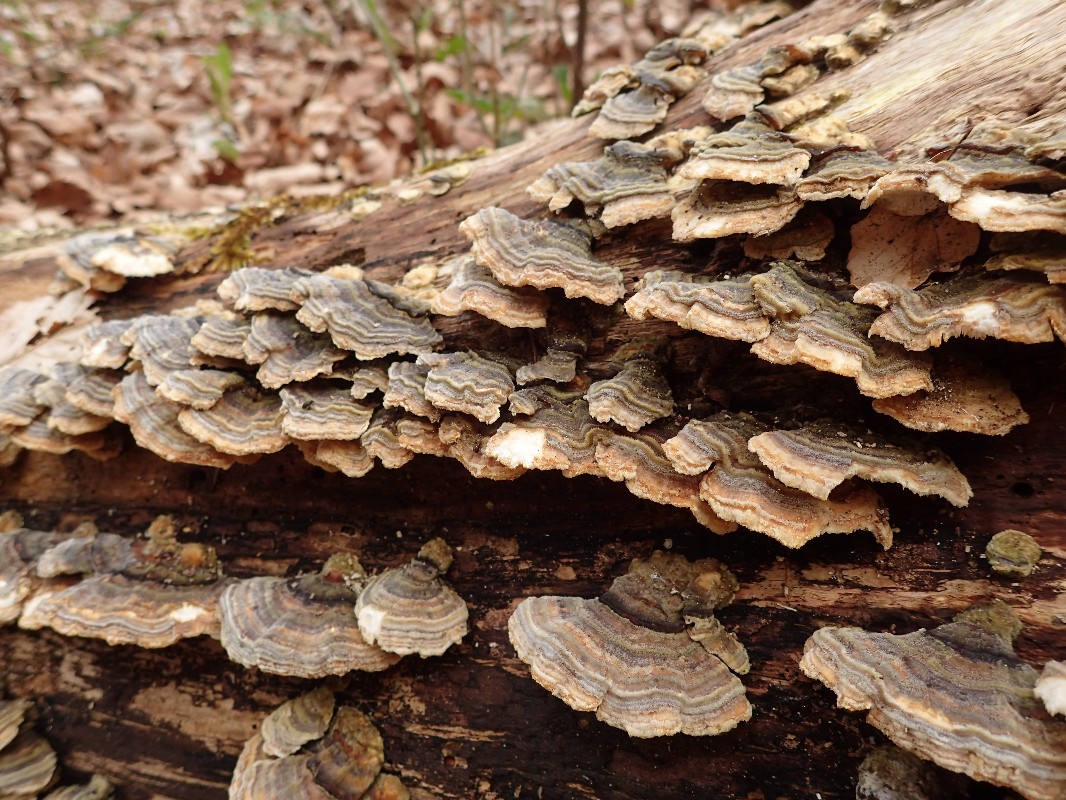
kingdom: Fungi
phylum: Basidiomycota
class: Agaricomycetes
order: Polyporales
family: Polyporaceae
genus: Trametes
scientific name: Trametes versicolor
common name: broget læderporesvamp
